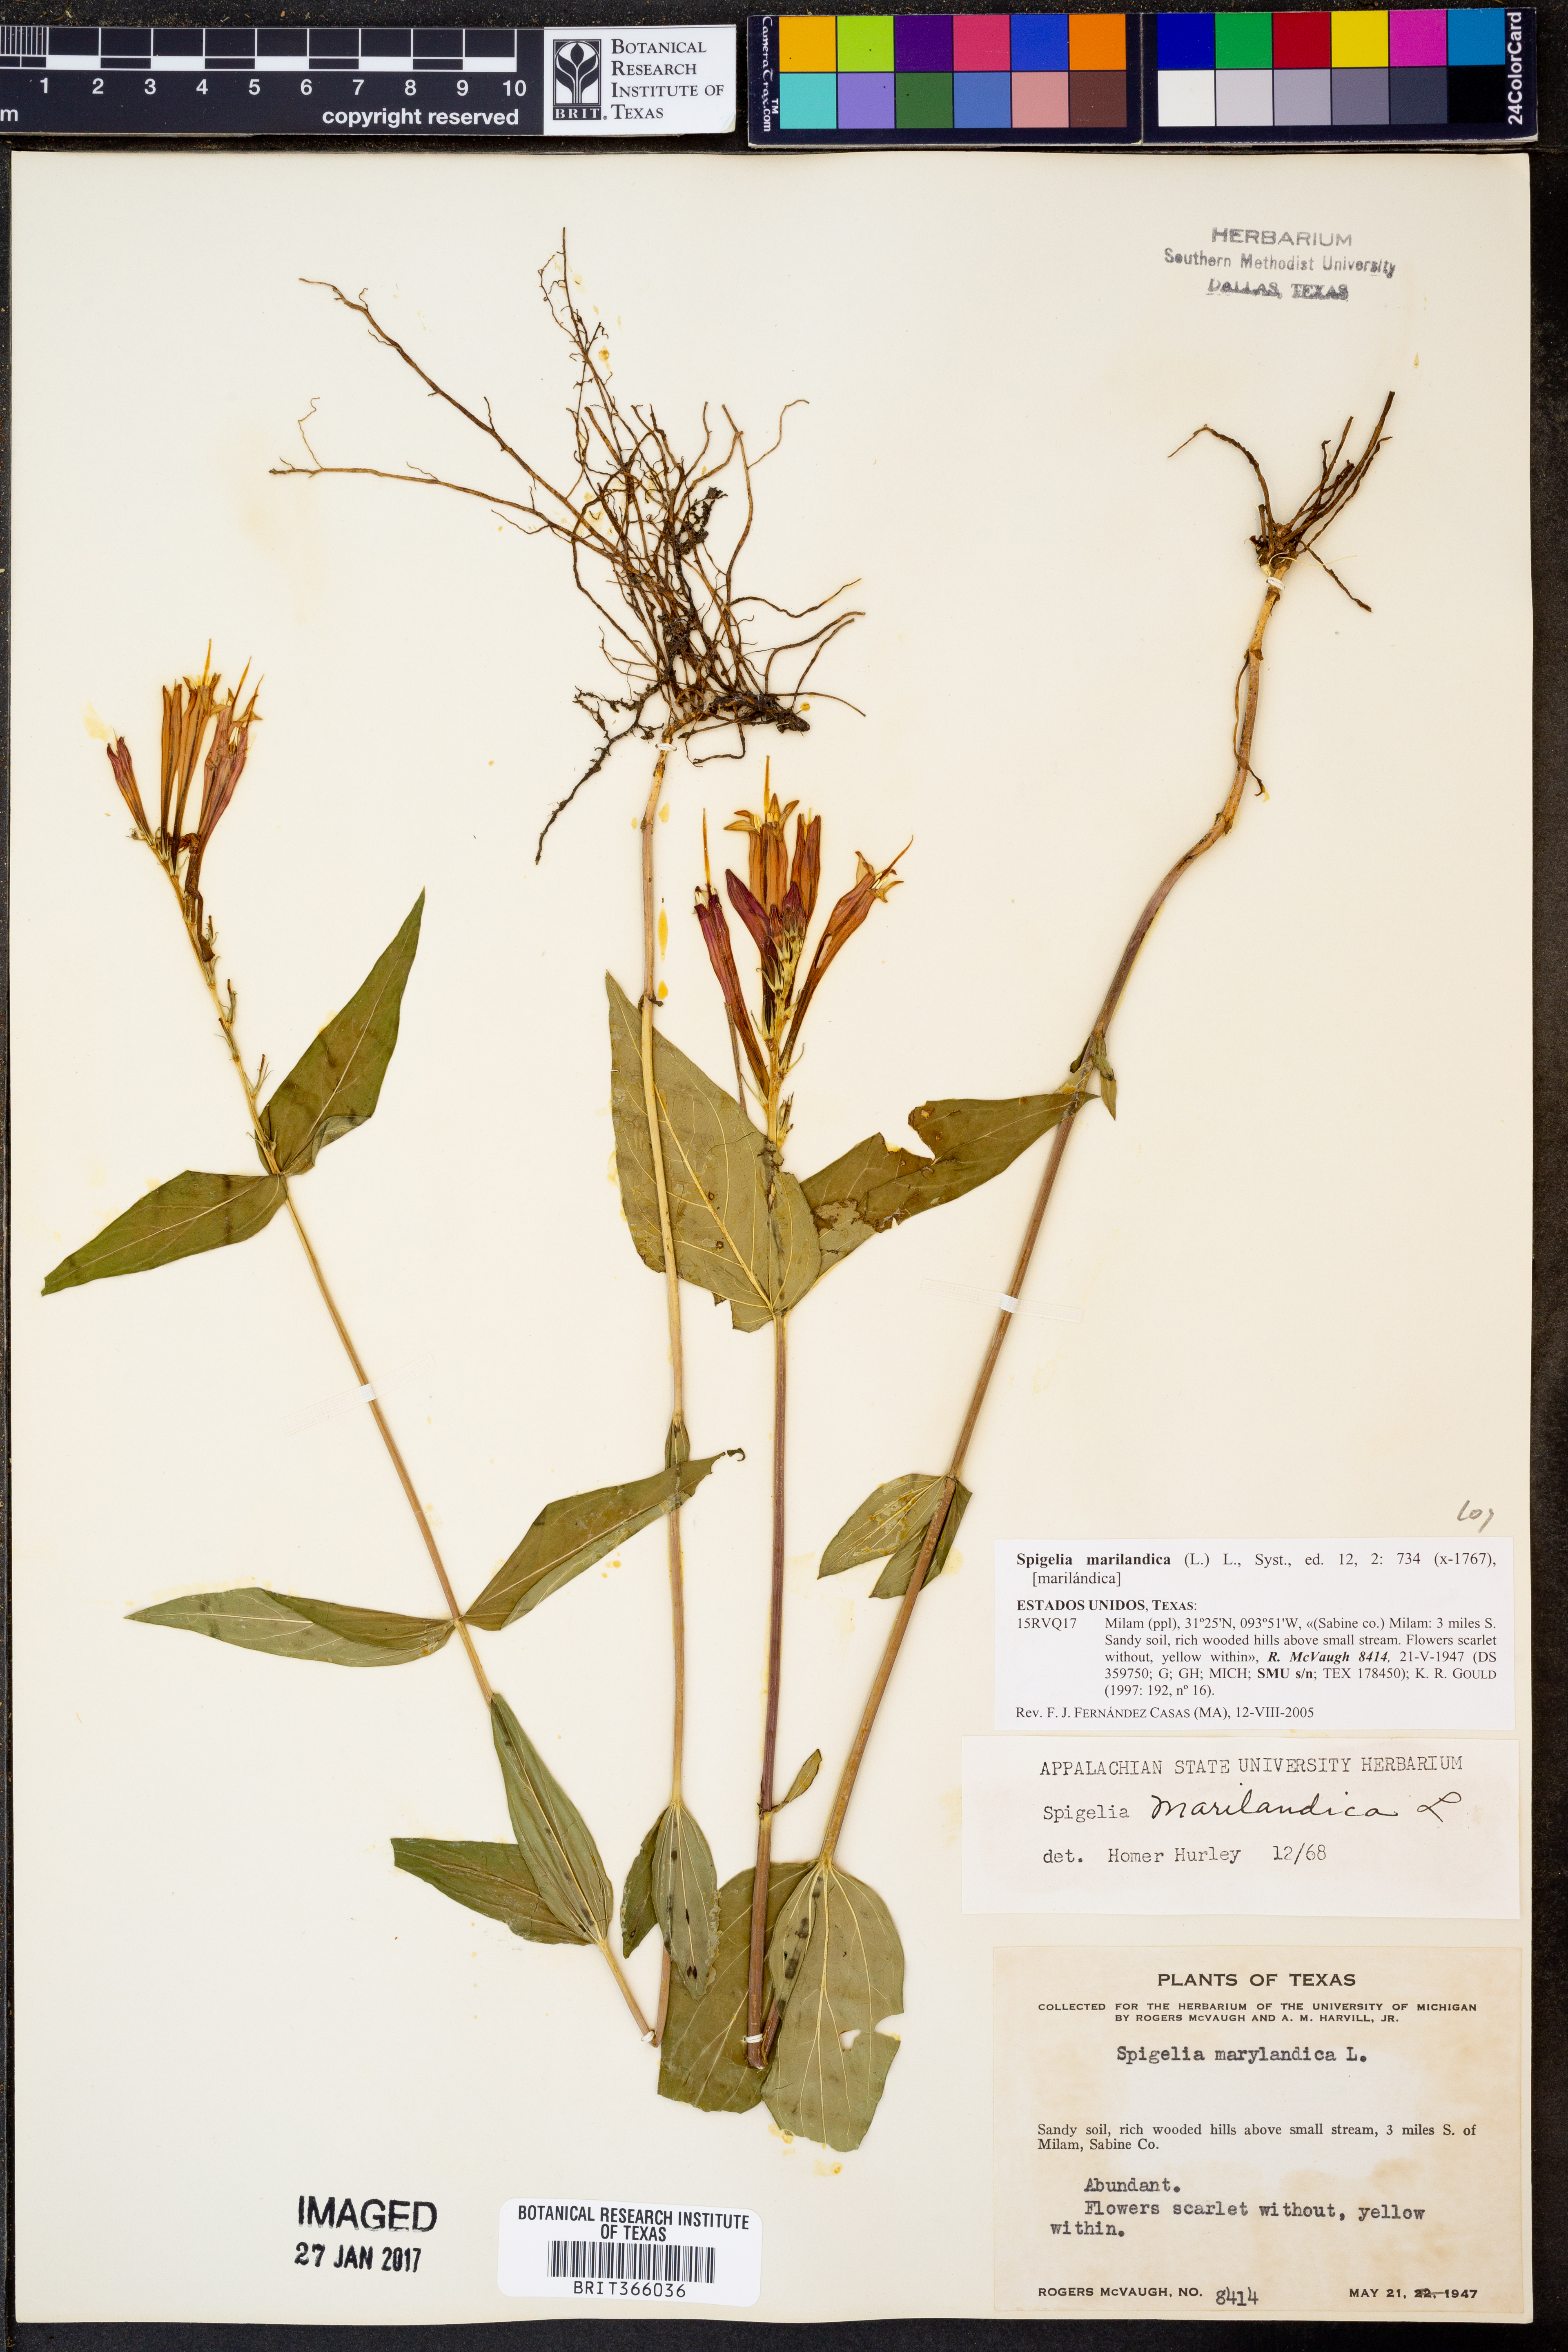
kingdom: Plantae
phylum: Tracheophyta
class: Magnoliopsida
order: Gentianales
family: Loganiaceae
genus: Spigelia
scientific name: Spigelia marilandica
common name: Indian-pink
